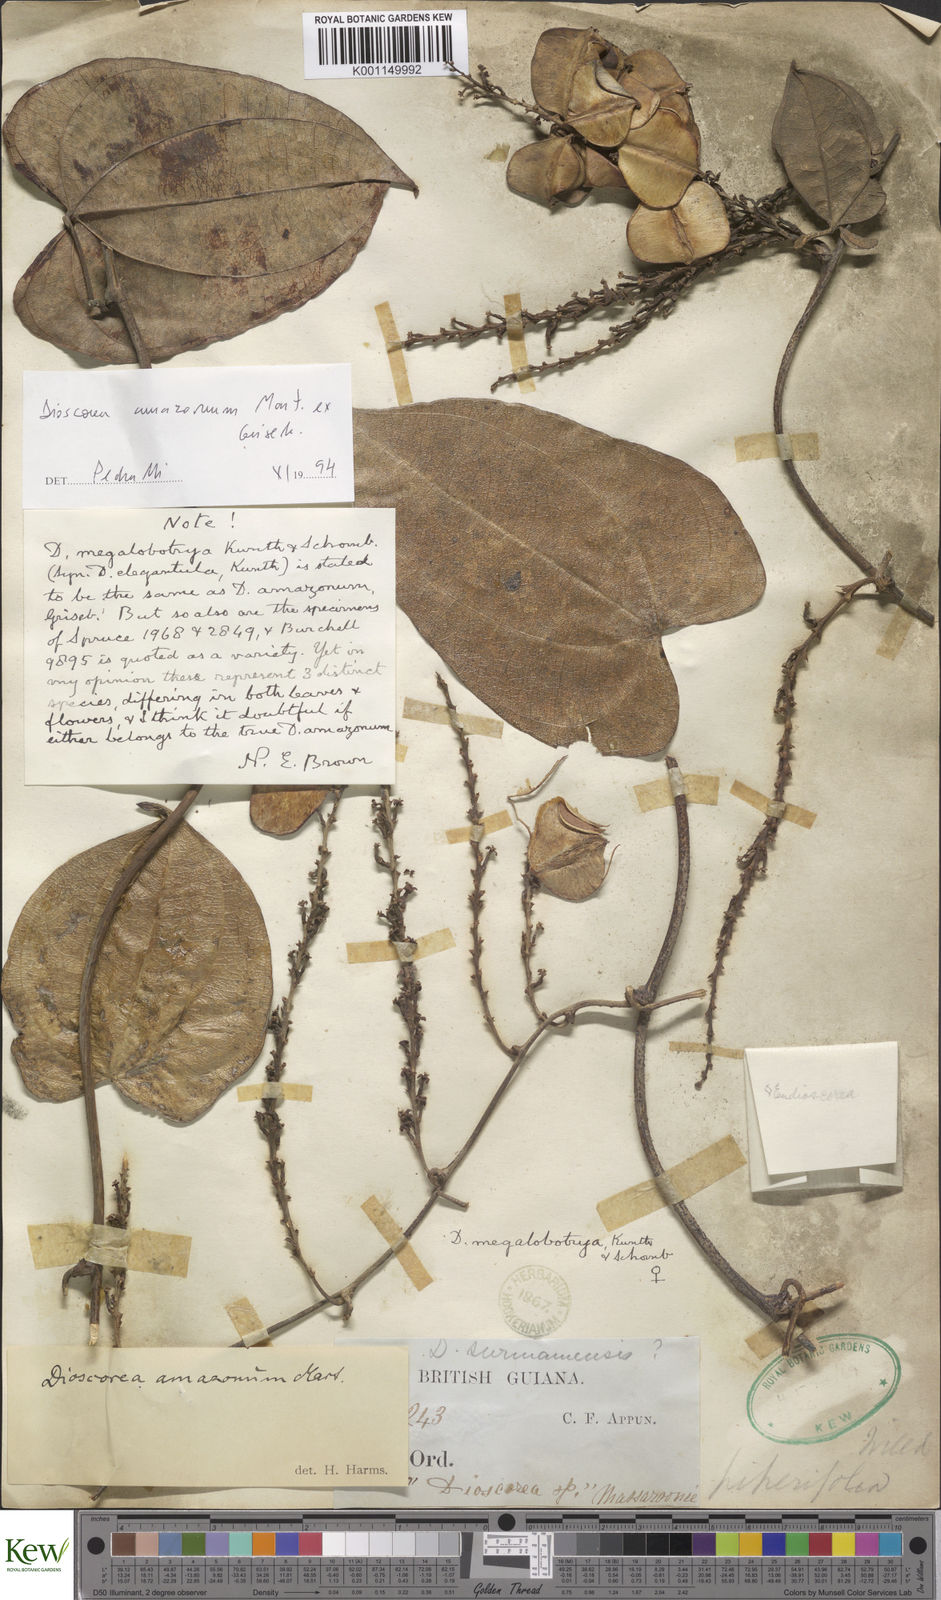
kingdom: Plantae
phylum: Tracheophyta
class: Liliopsida
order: Dioscoreales
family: Dioscoreaceae
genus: Dioscorea
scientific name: Dioscorea amazonum
